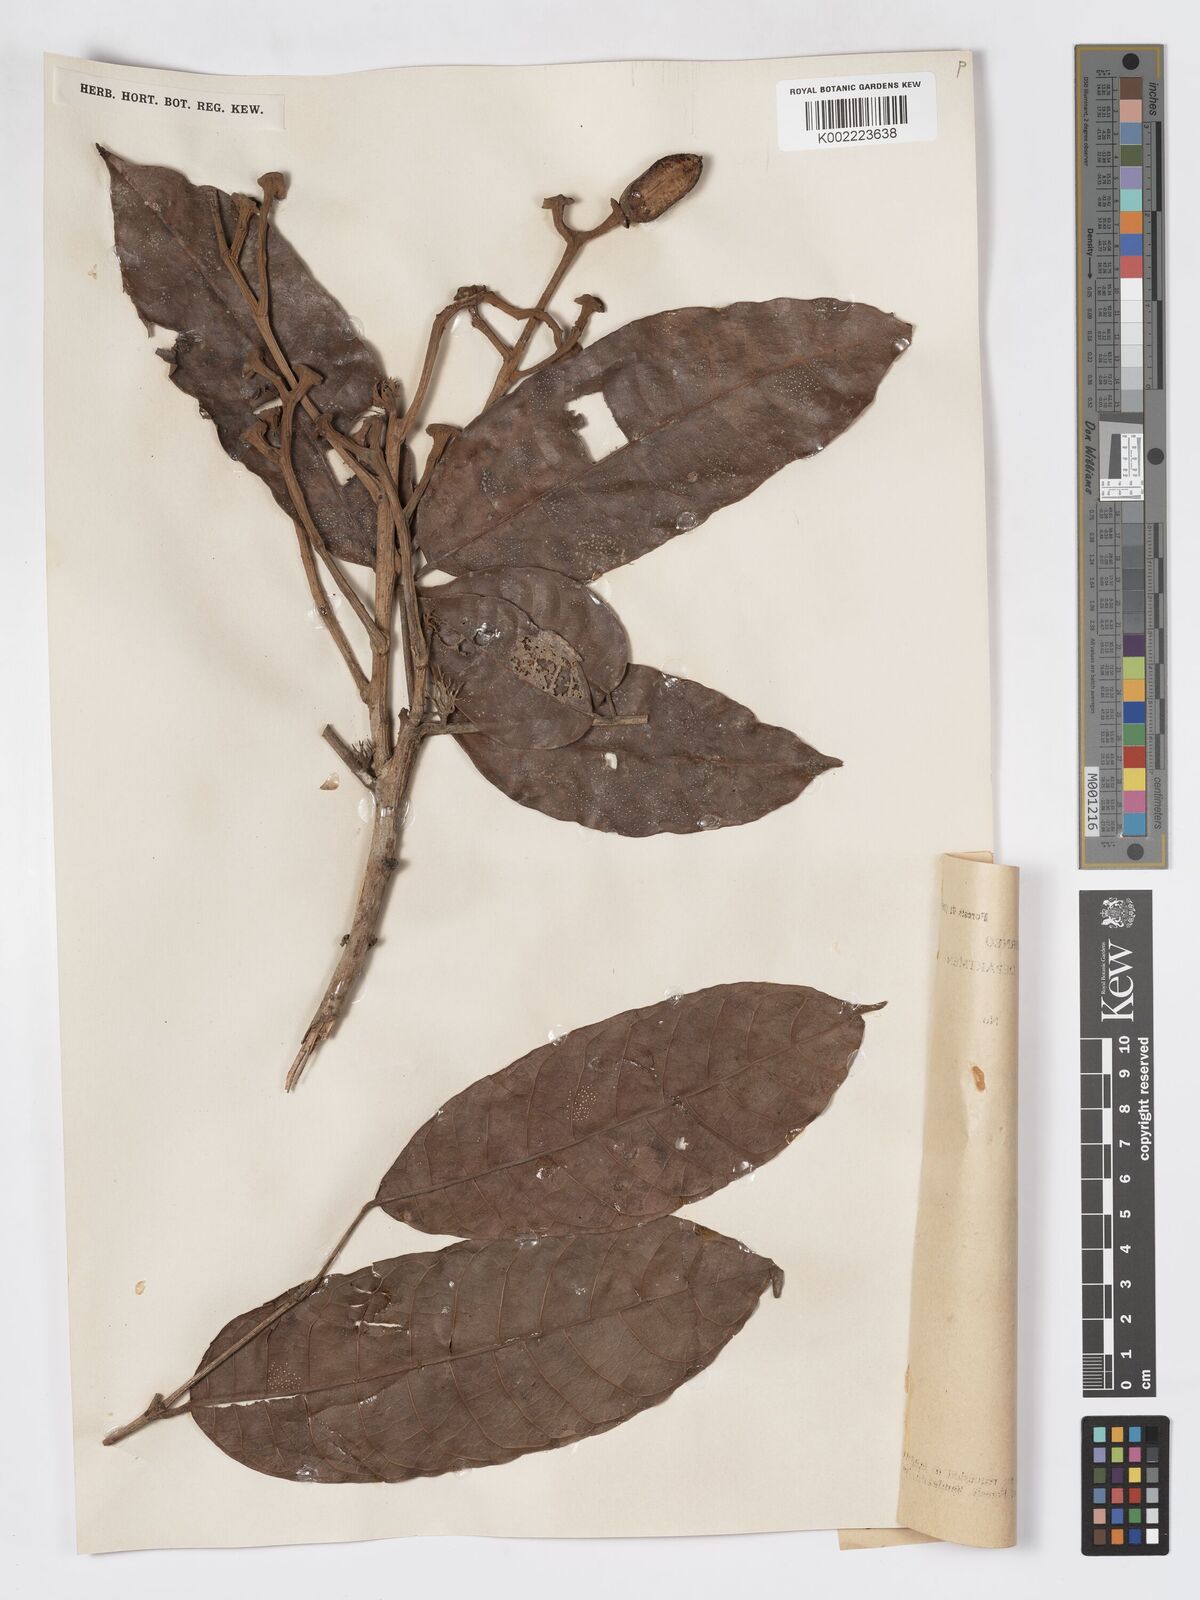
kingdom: Plantae
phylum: Tracheophyta
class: Magnoliopsida
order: Sapindales
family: Burseraceae
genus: Canarium
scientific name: Canarium denticulatum
